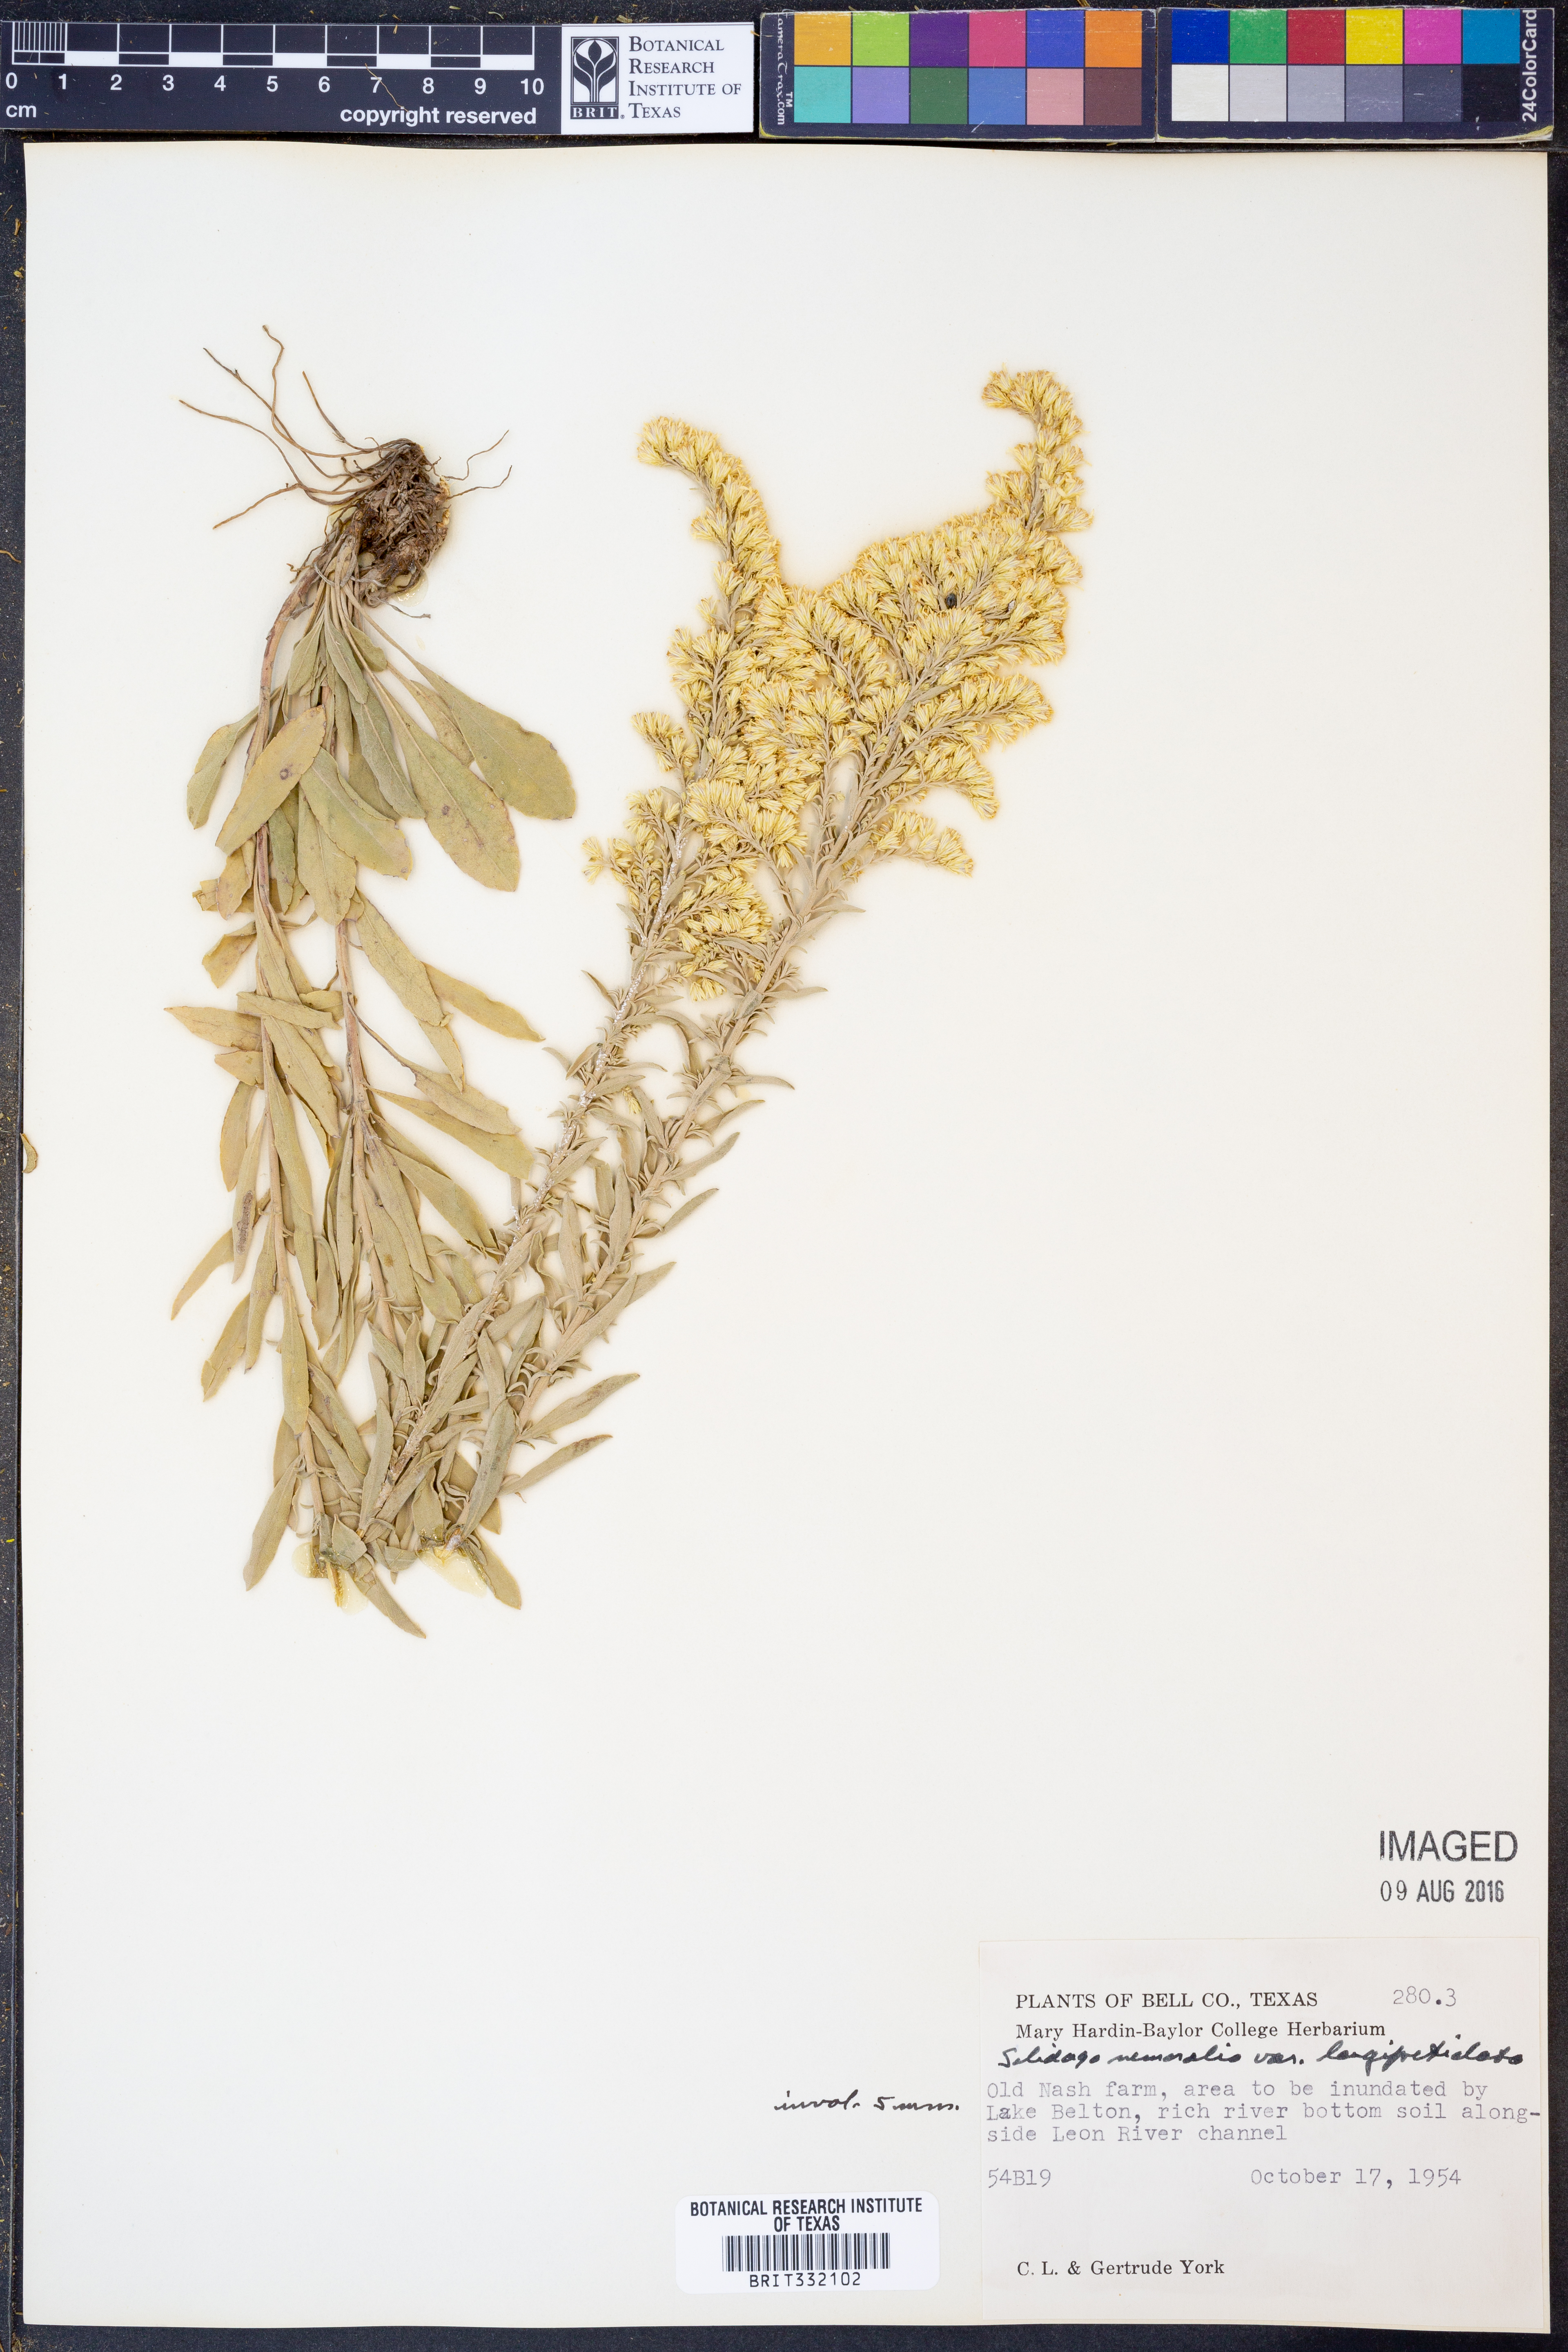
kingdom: Plantae
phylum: Tracheophyta
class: Magnoliopsida
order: Asterales
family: Asteraceae
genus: Solidago
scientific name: Solidago decemflora
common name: Prairie grey-stemmed goldenrod
